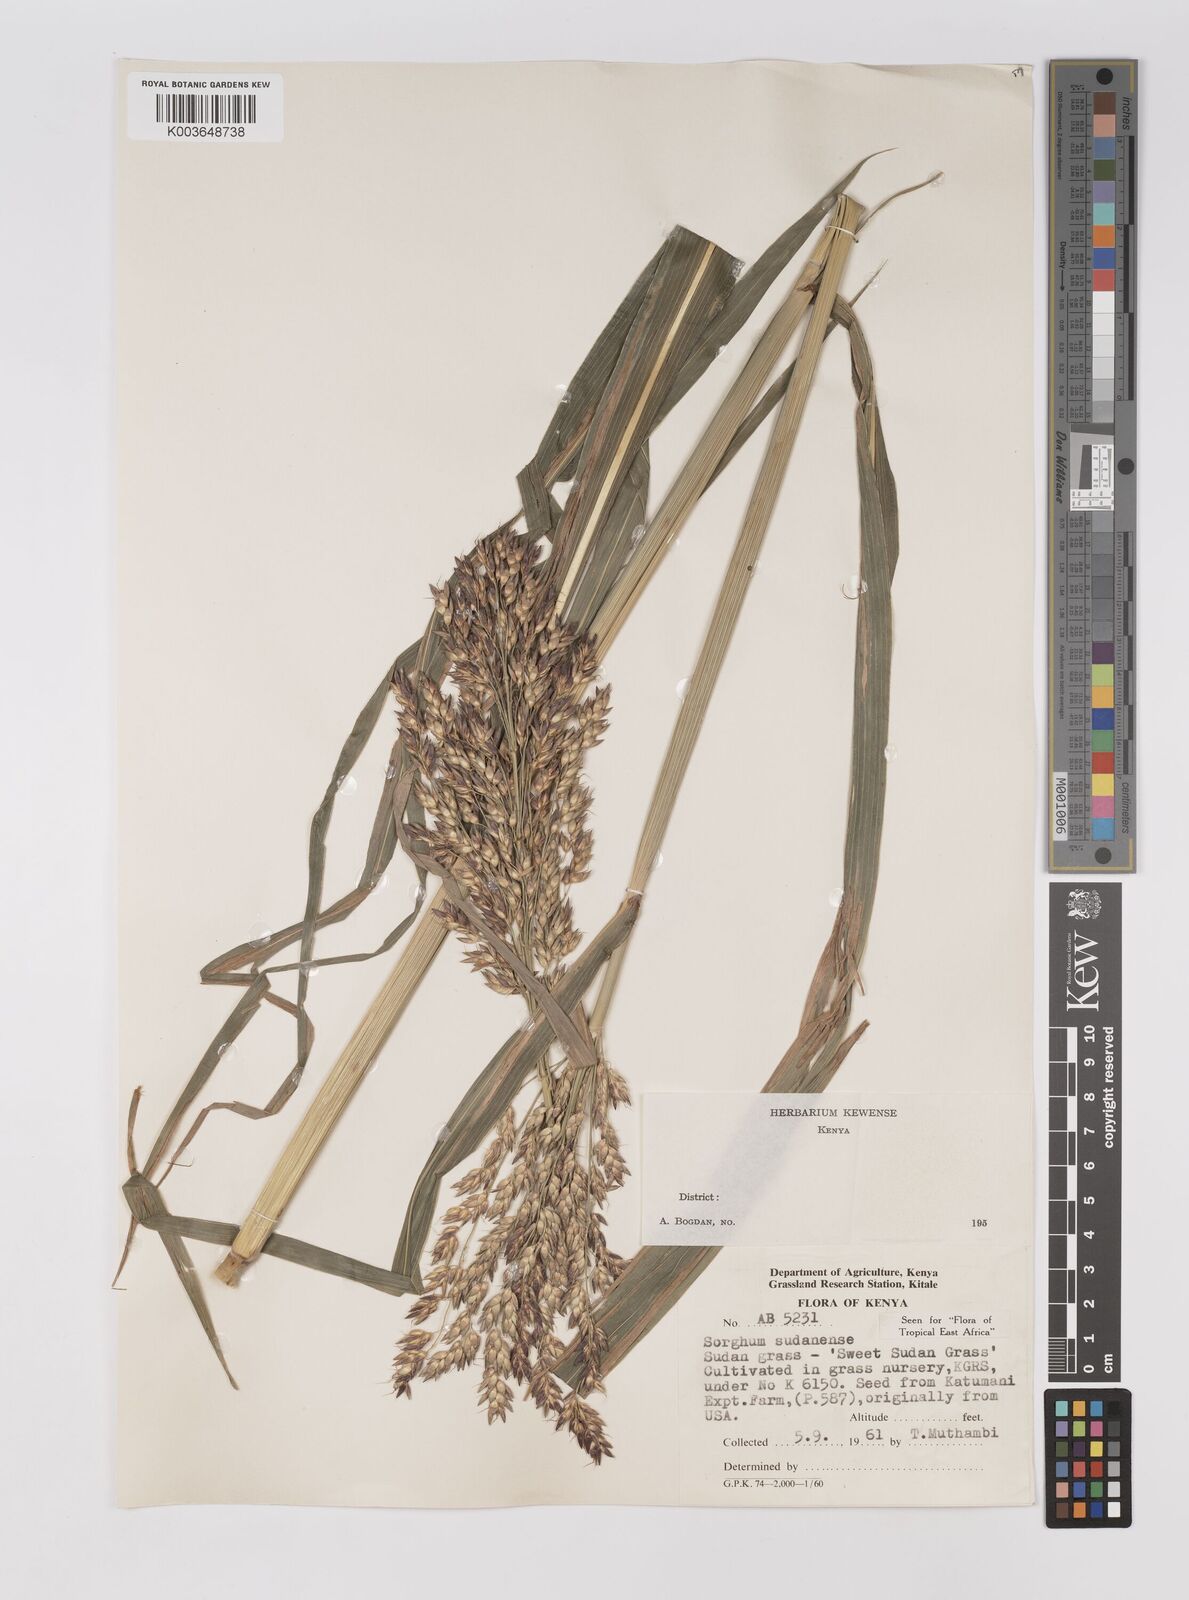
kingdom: Plantae
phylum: Tracheophyta
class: Liliopsida
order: Poales
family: Poaceae
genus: Sorghum
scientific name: Sorghum drummondii
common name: Sudangrass
